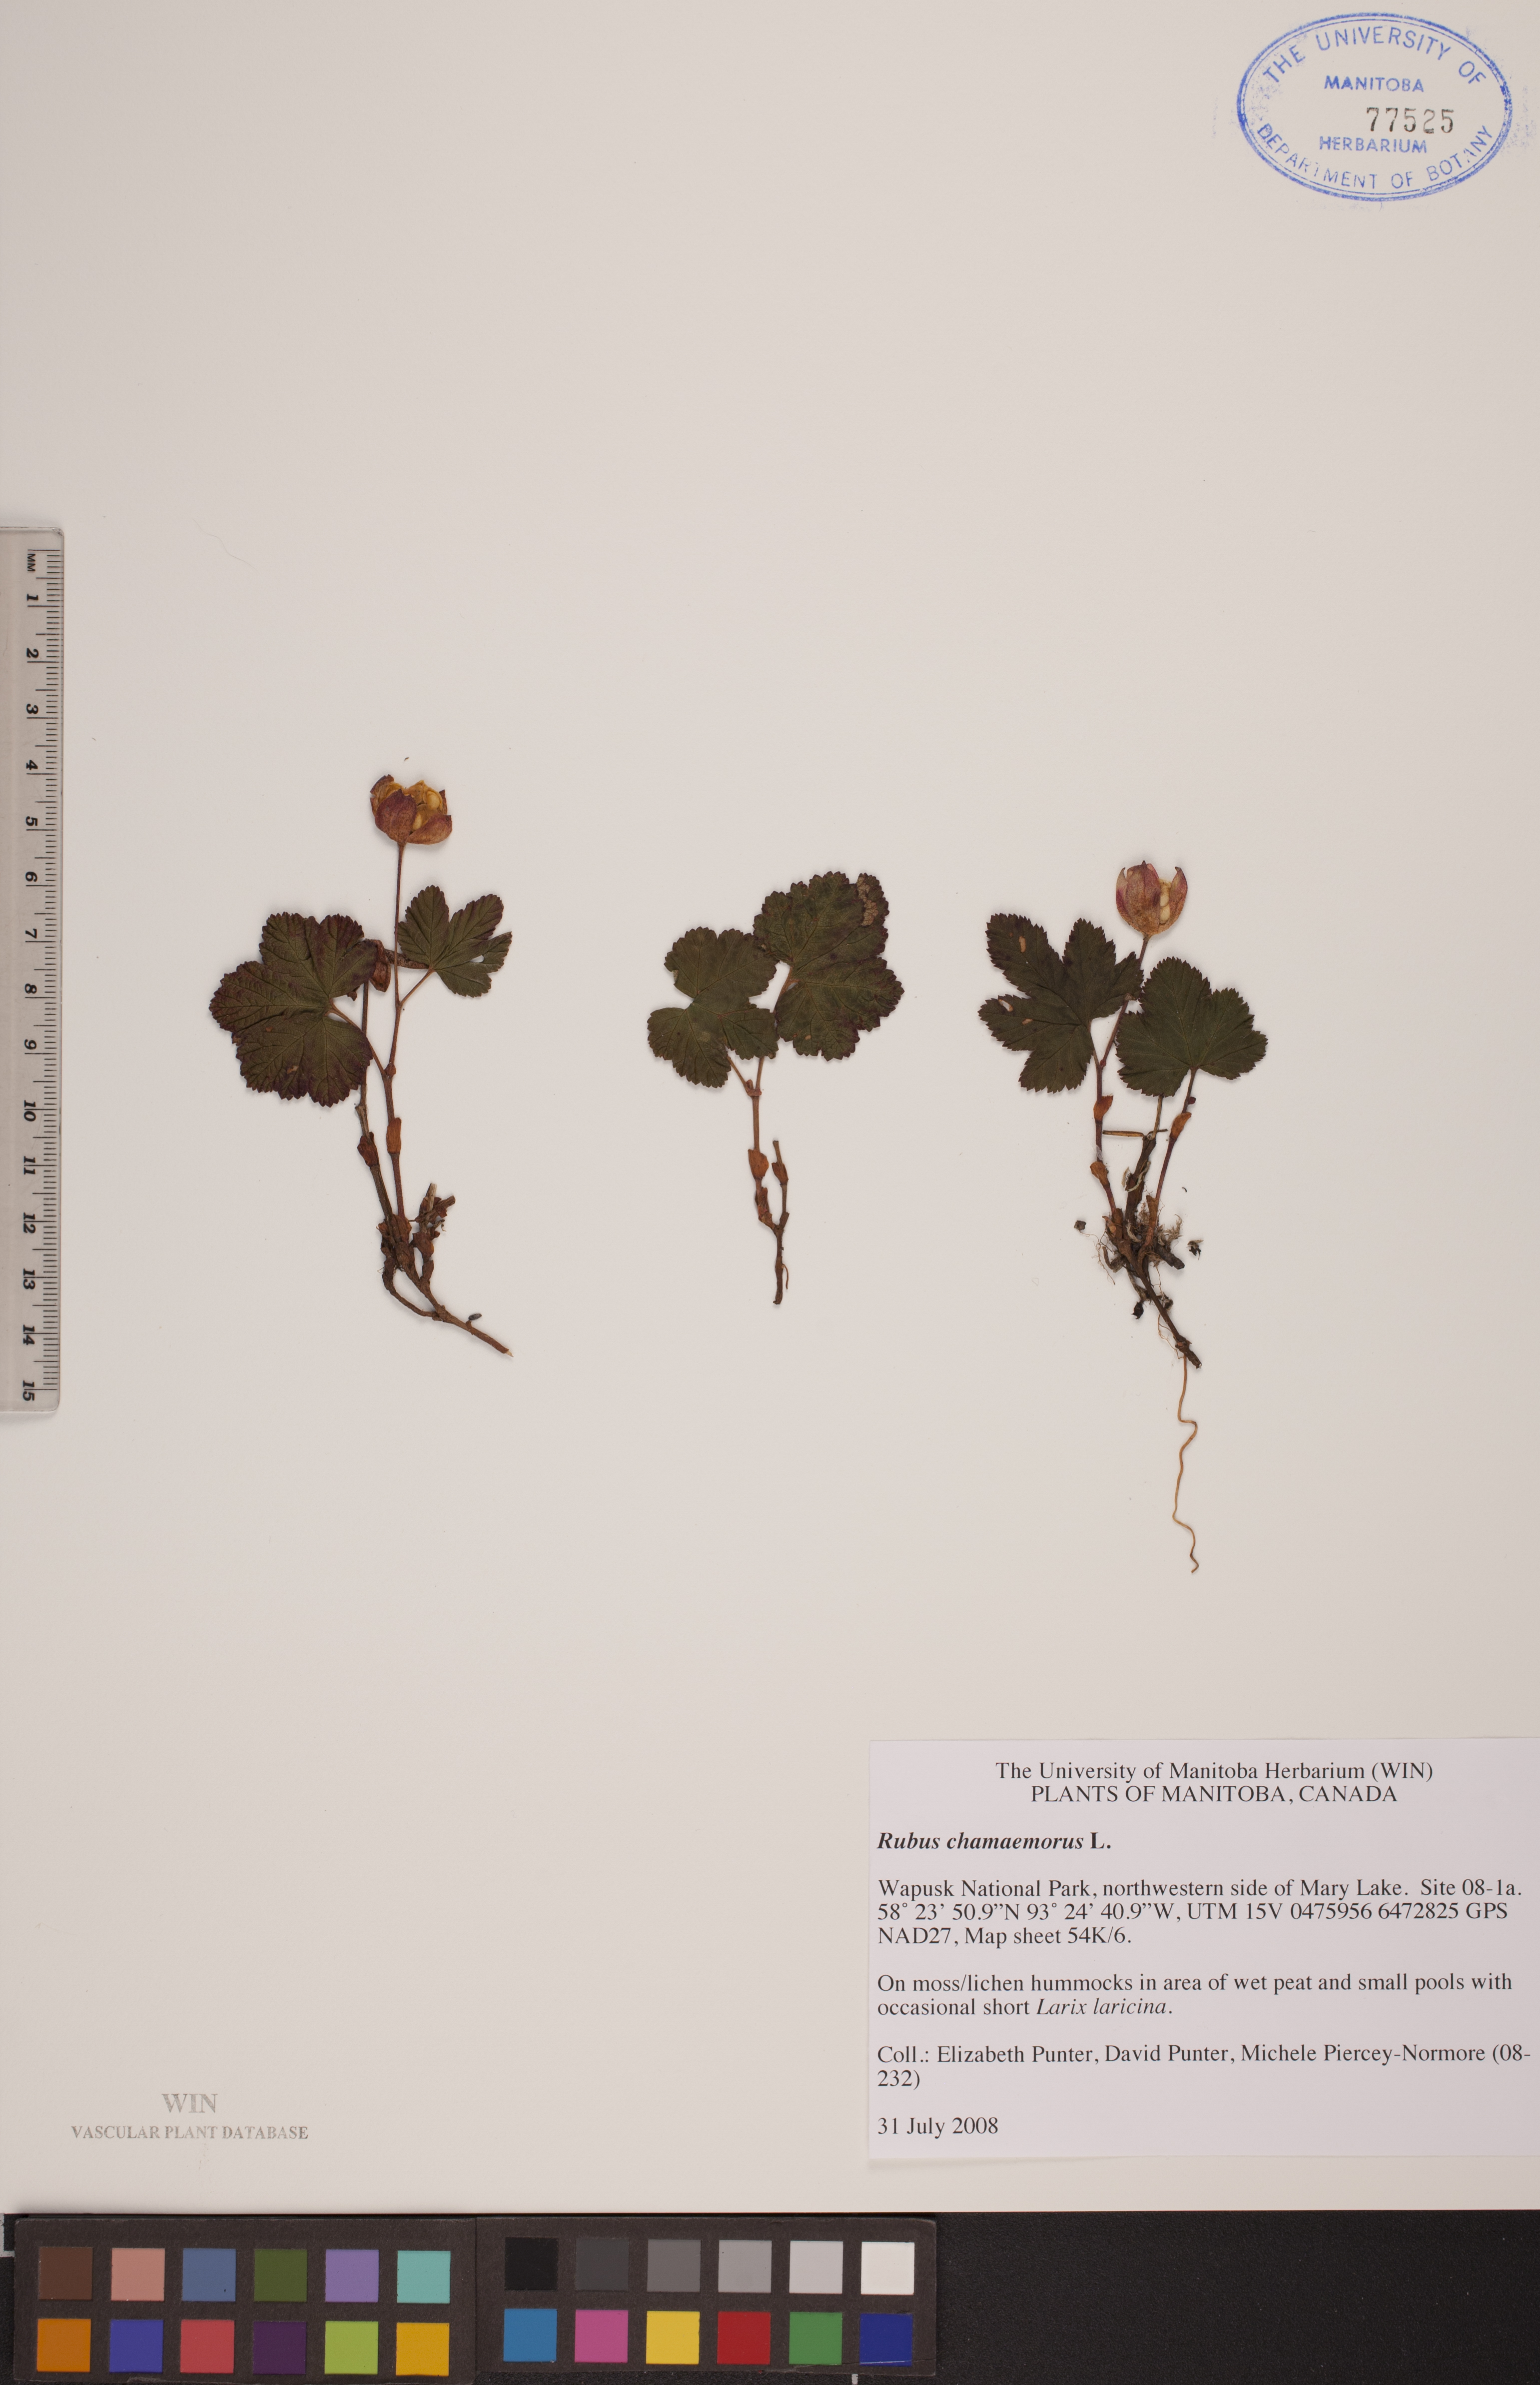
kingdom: Plantae
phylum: Tracheophyta
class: Magnoliopsida
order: Rosales
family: Rosaceae
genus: Rubus
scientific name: Rubus chamaemorus
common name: Cloudberry
